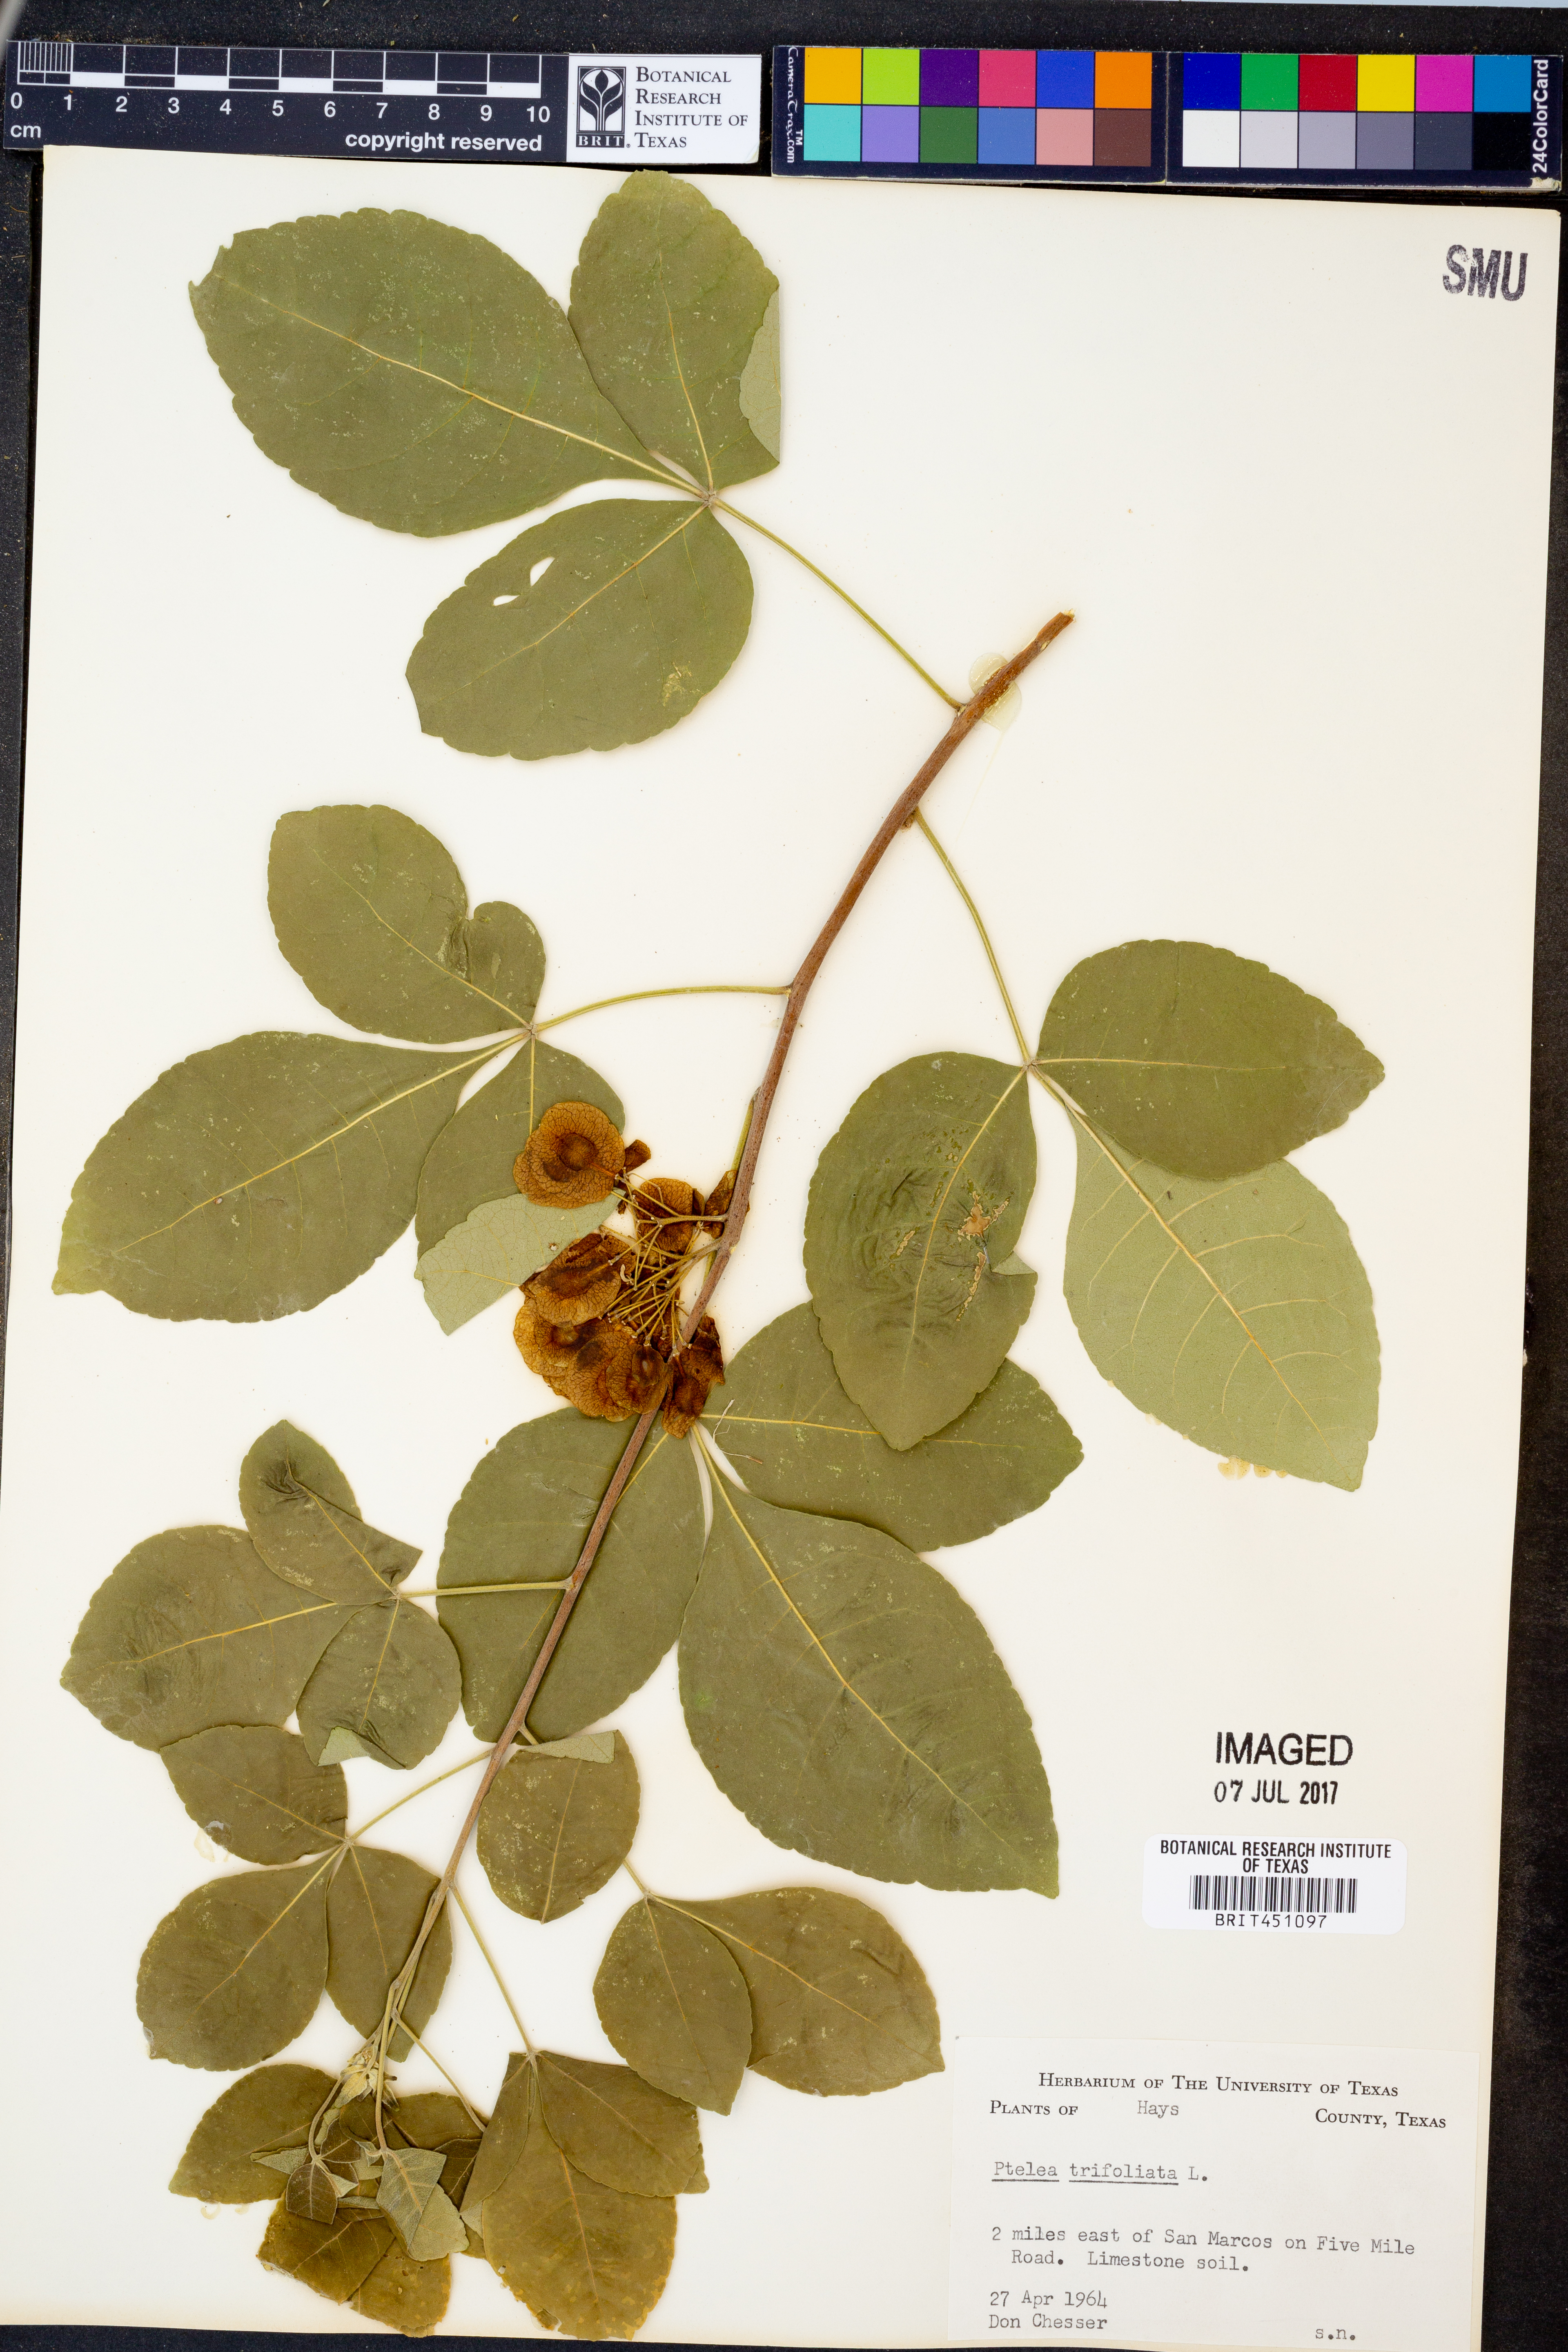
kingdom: Plantae
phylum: Tracheophyta
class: Magnoliopsida
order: Sapindales
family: Rutaceae
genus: Ptelea
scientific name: Ptelea trifoliata
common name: Common hop-tree
